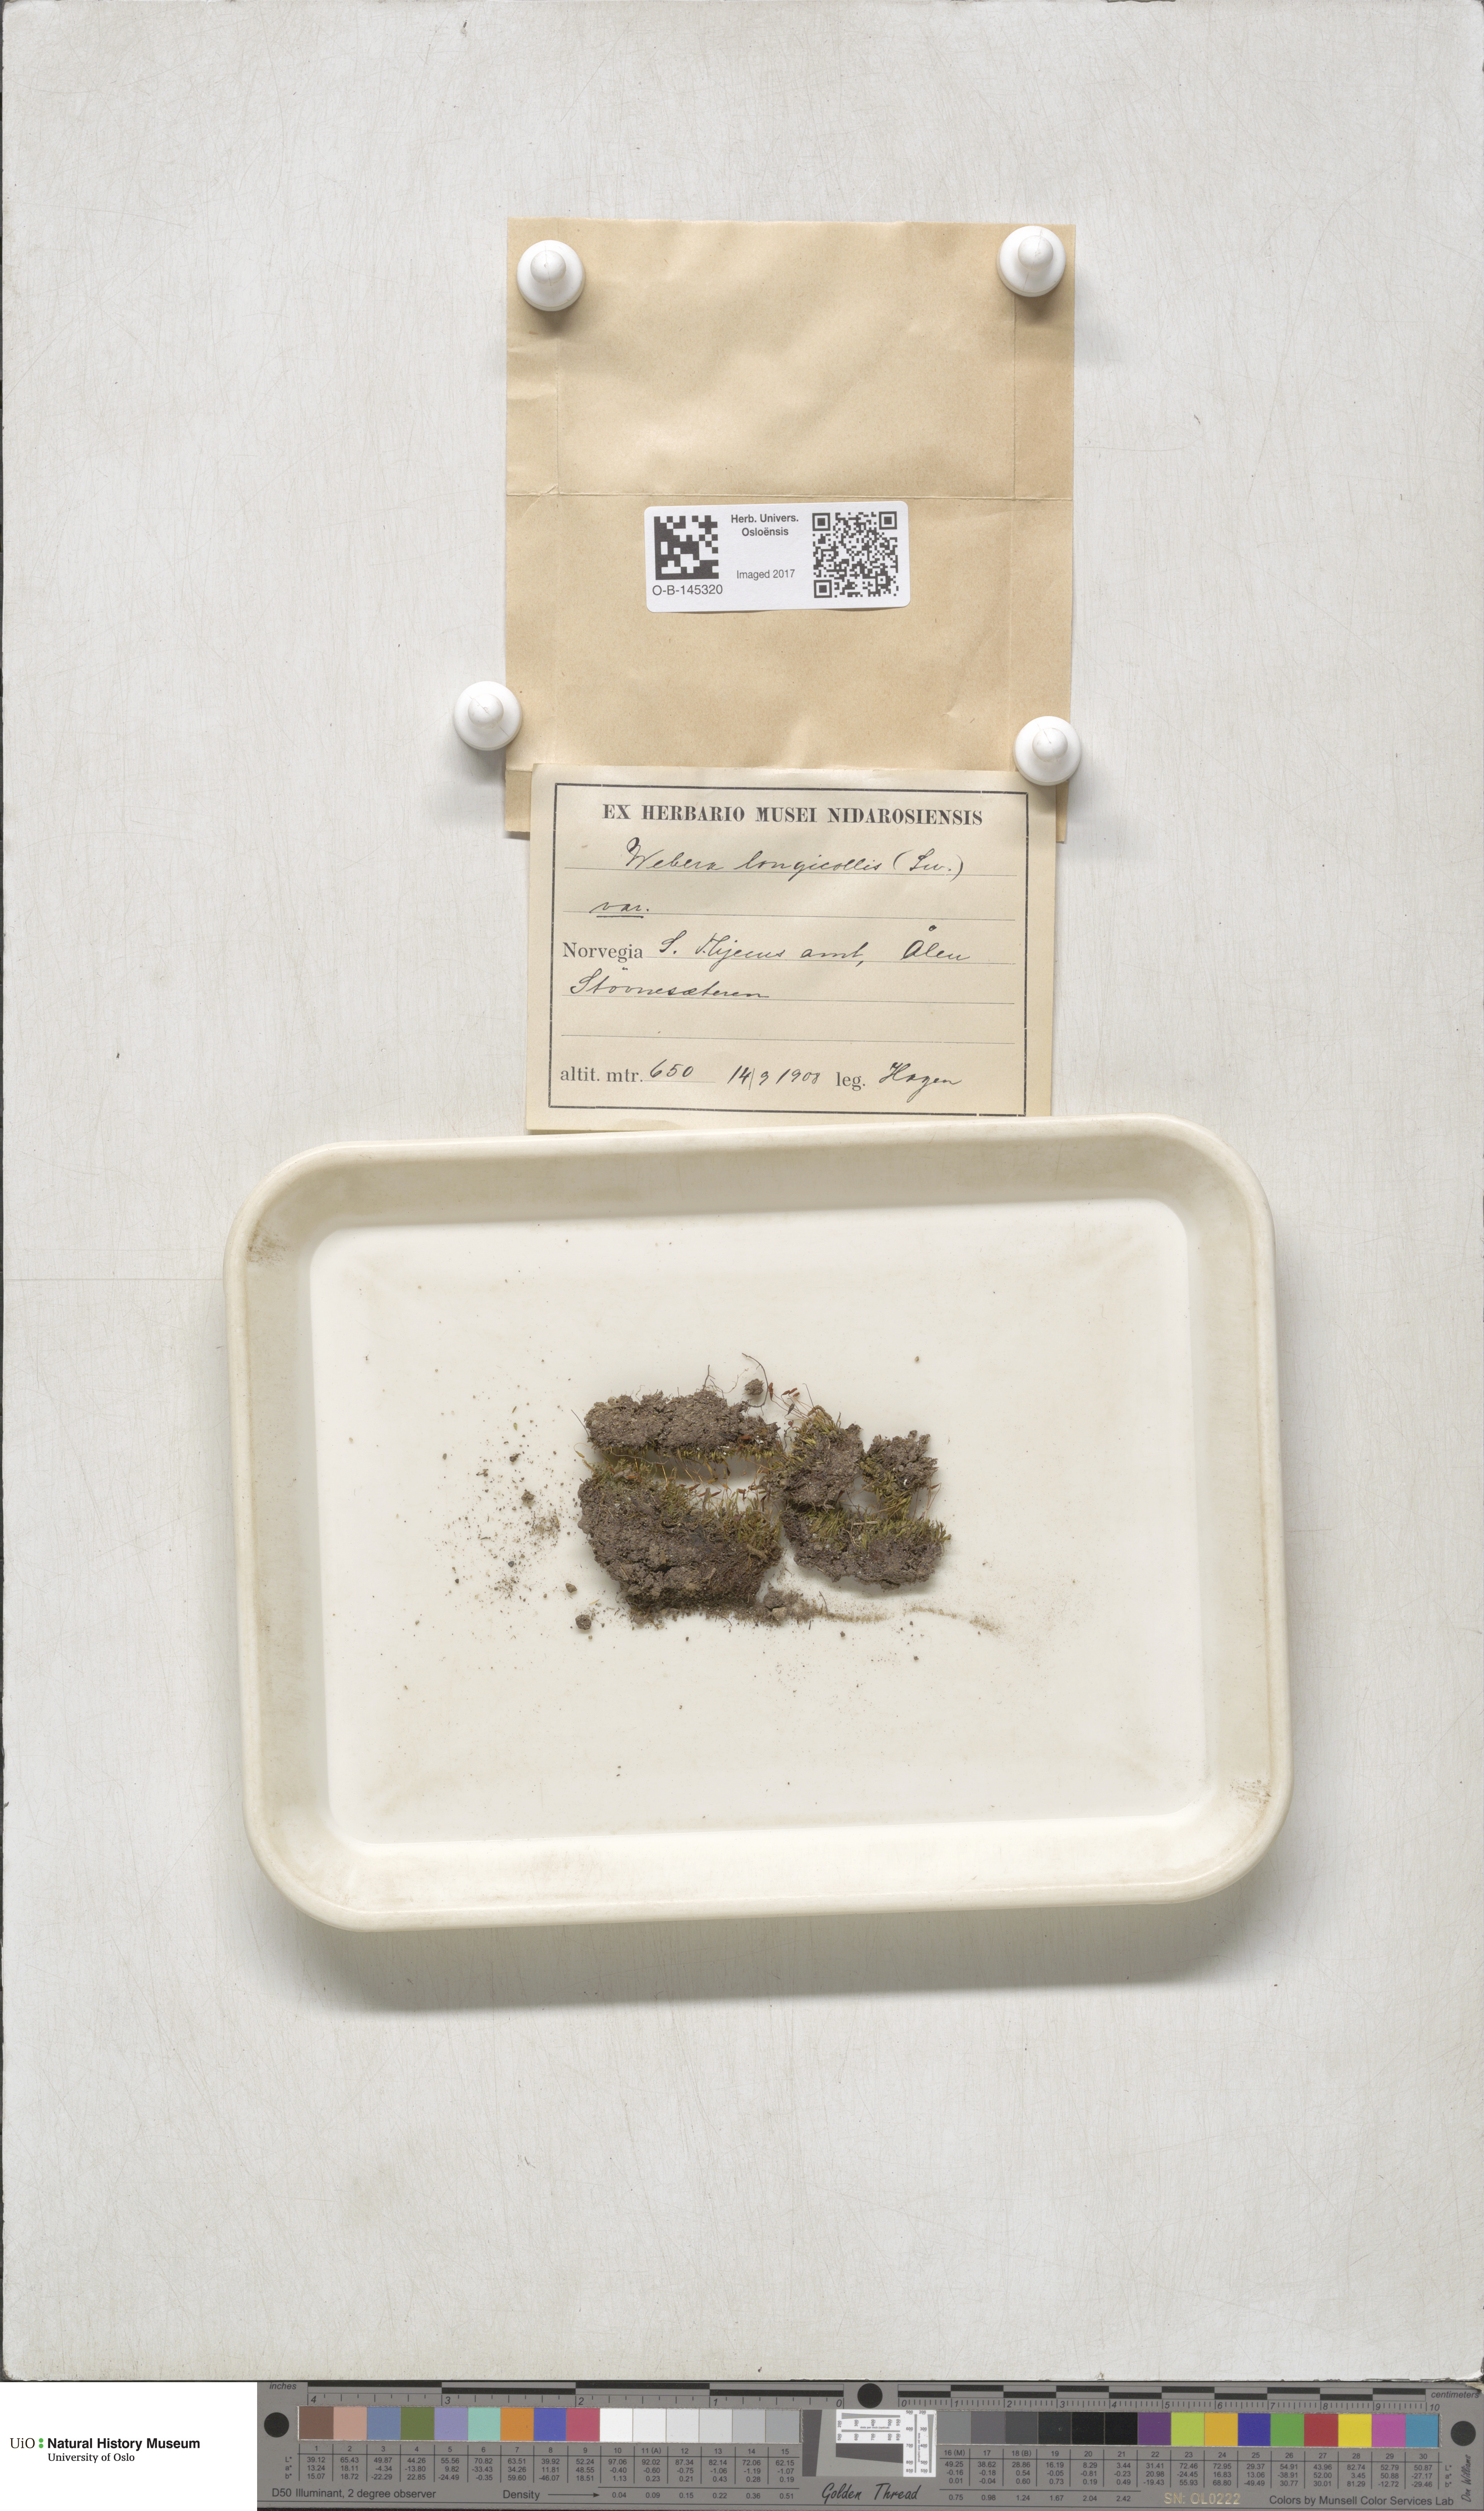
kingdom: Plantae
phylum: Bryophyta
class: Bryopsida
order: Bryales
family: Mniaceae
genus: Pohlia
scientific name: Pohlia longicolla
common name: Long-necked nodding moss
